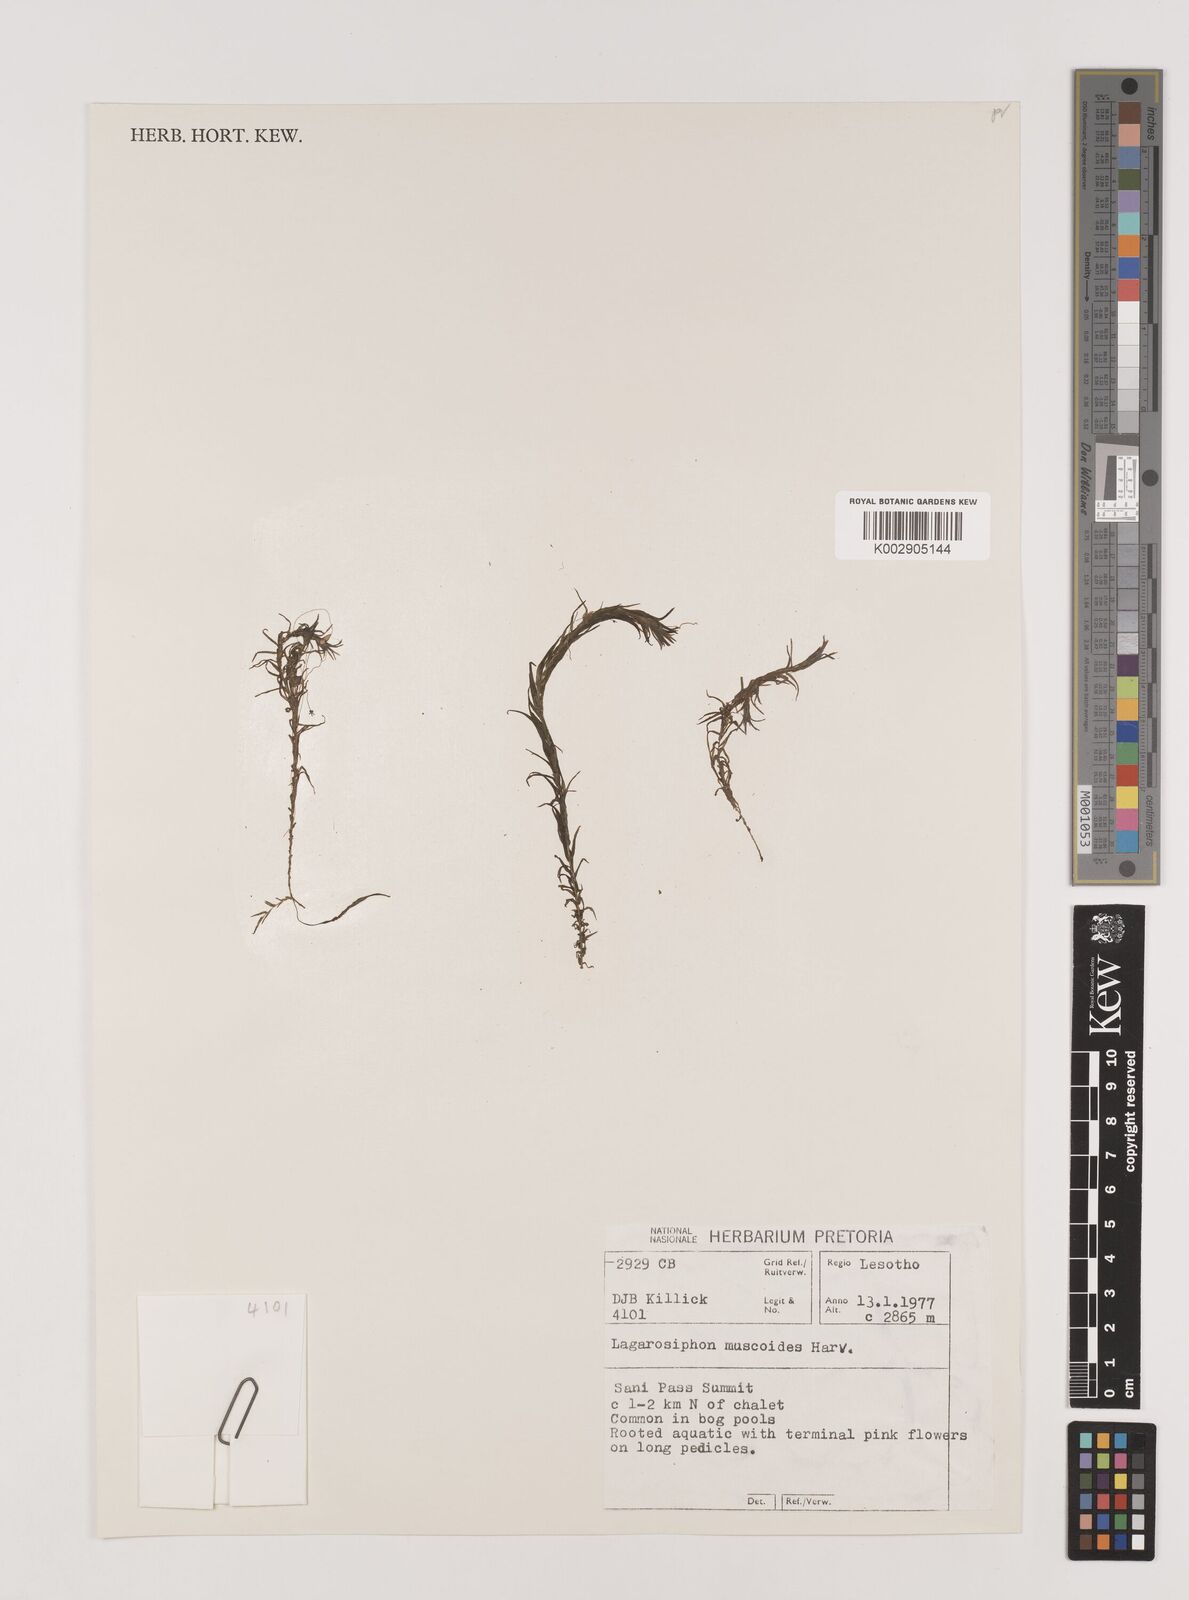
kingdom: Plantae
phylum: Tracheophyta
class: Liliopsida
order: Alismatales
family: Hydrocharitaceae
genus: Lagarosiphon
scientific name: Lagarosiphon muscoides
